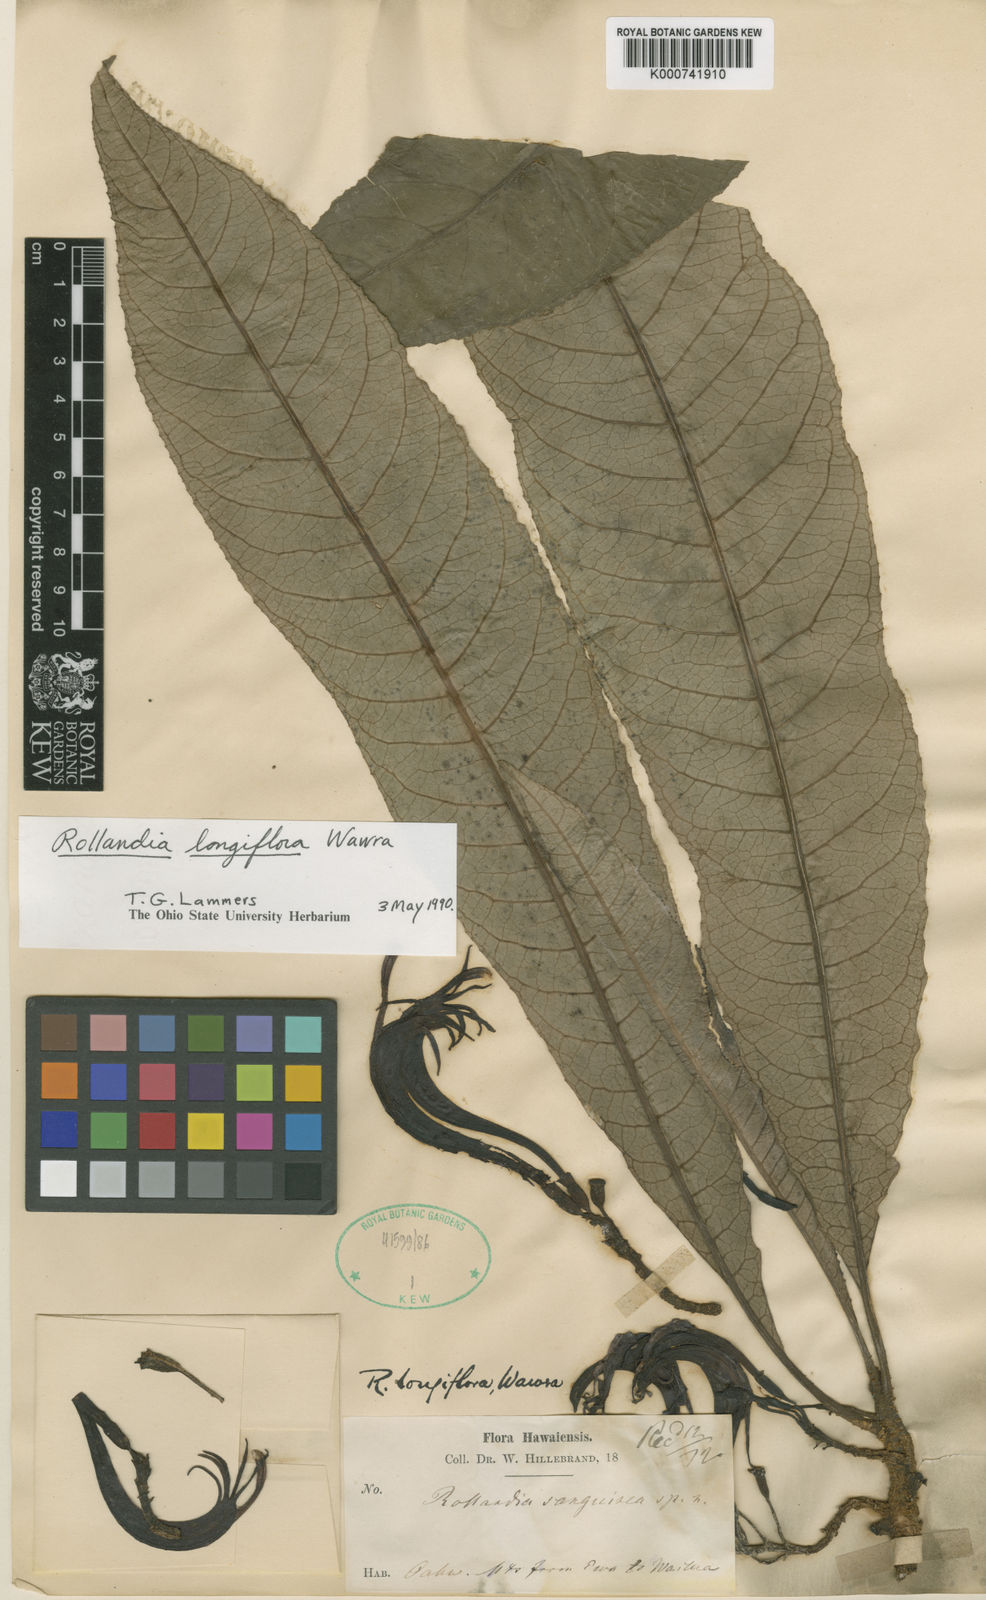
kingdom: Plantae
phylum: Tracheophyta
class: Magnoliopsida
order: Asterales
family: Campanulaceae
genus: Cyanea
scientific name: Cyanea longiflora
